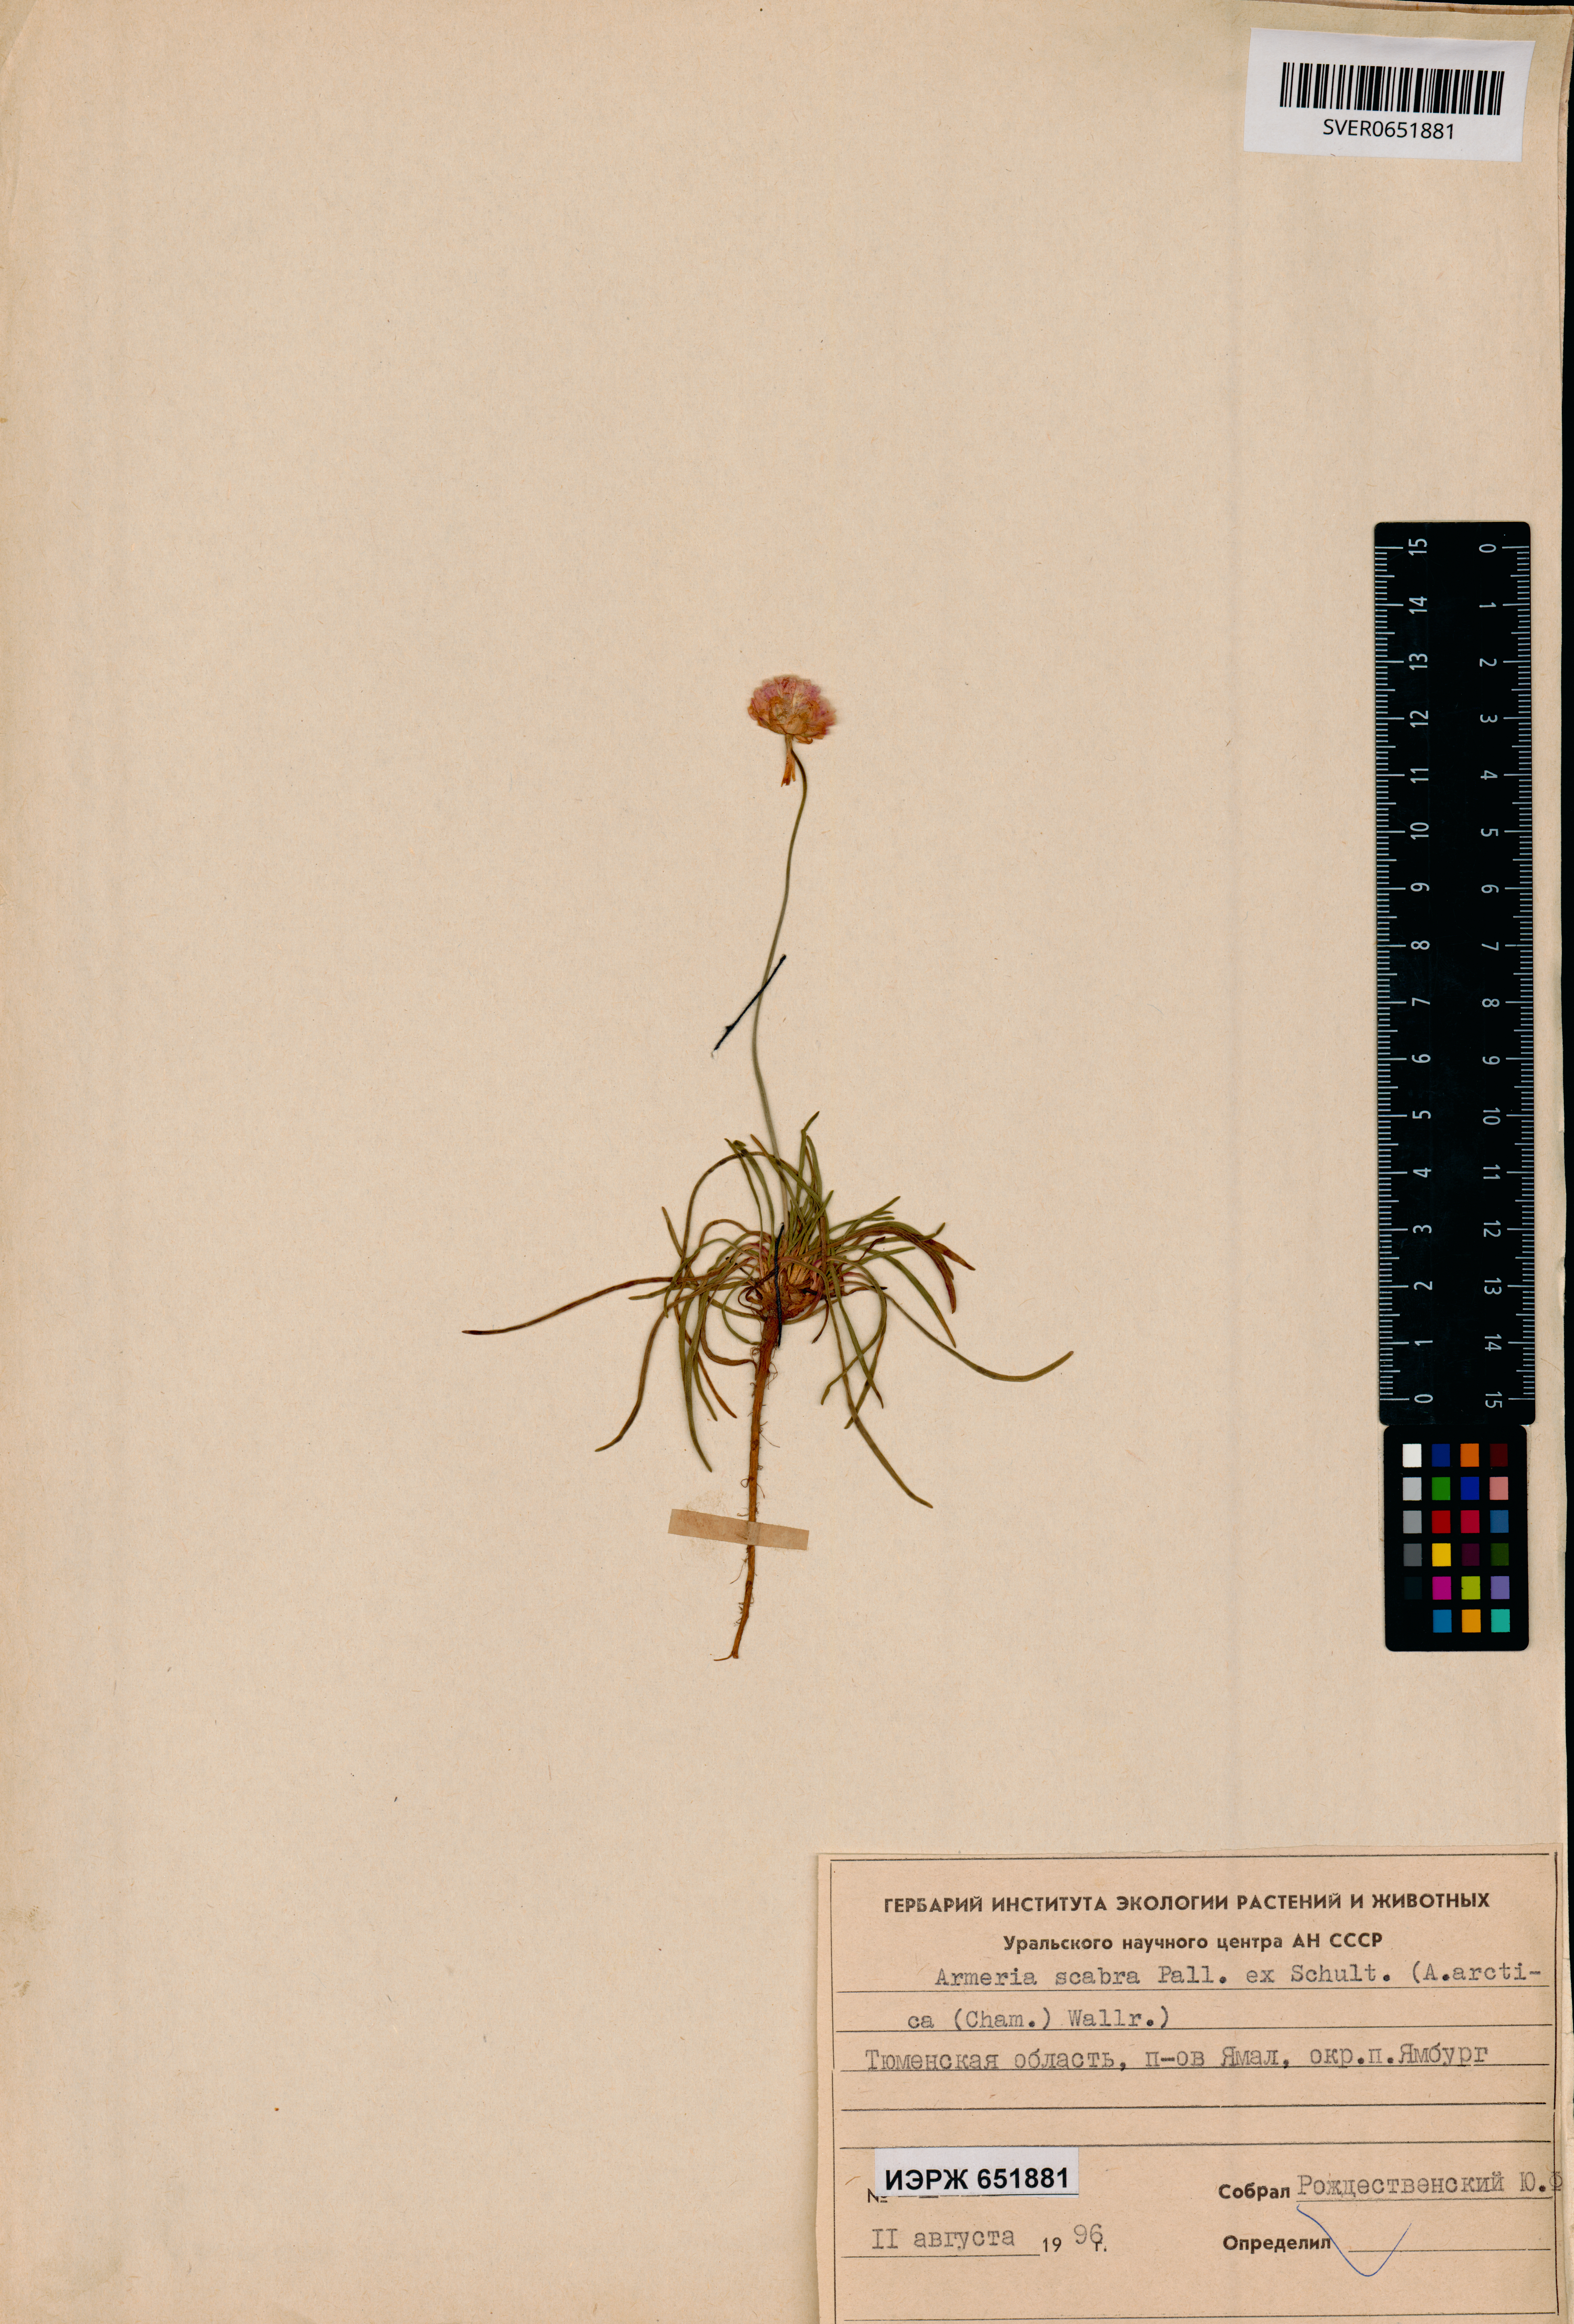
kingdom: Plantae
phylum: Tracheophyta
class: Magnoliopsida
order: Caryophyllales
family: Plumbaginaceae
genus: Armeria
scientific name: Armeria maritima
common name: Thrift
